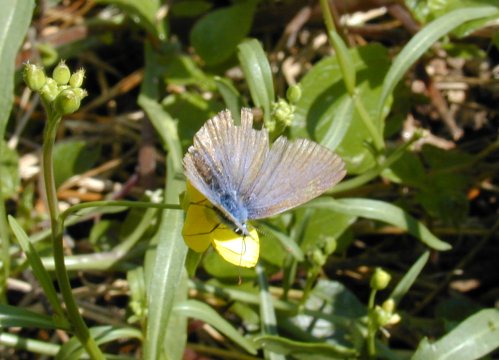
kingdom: Animalia
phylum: Arthropoda
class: Insecta
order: Lepidoptera
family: Lycaenidae
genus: Polyommatus
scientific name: Polyommatus icarus
